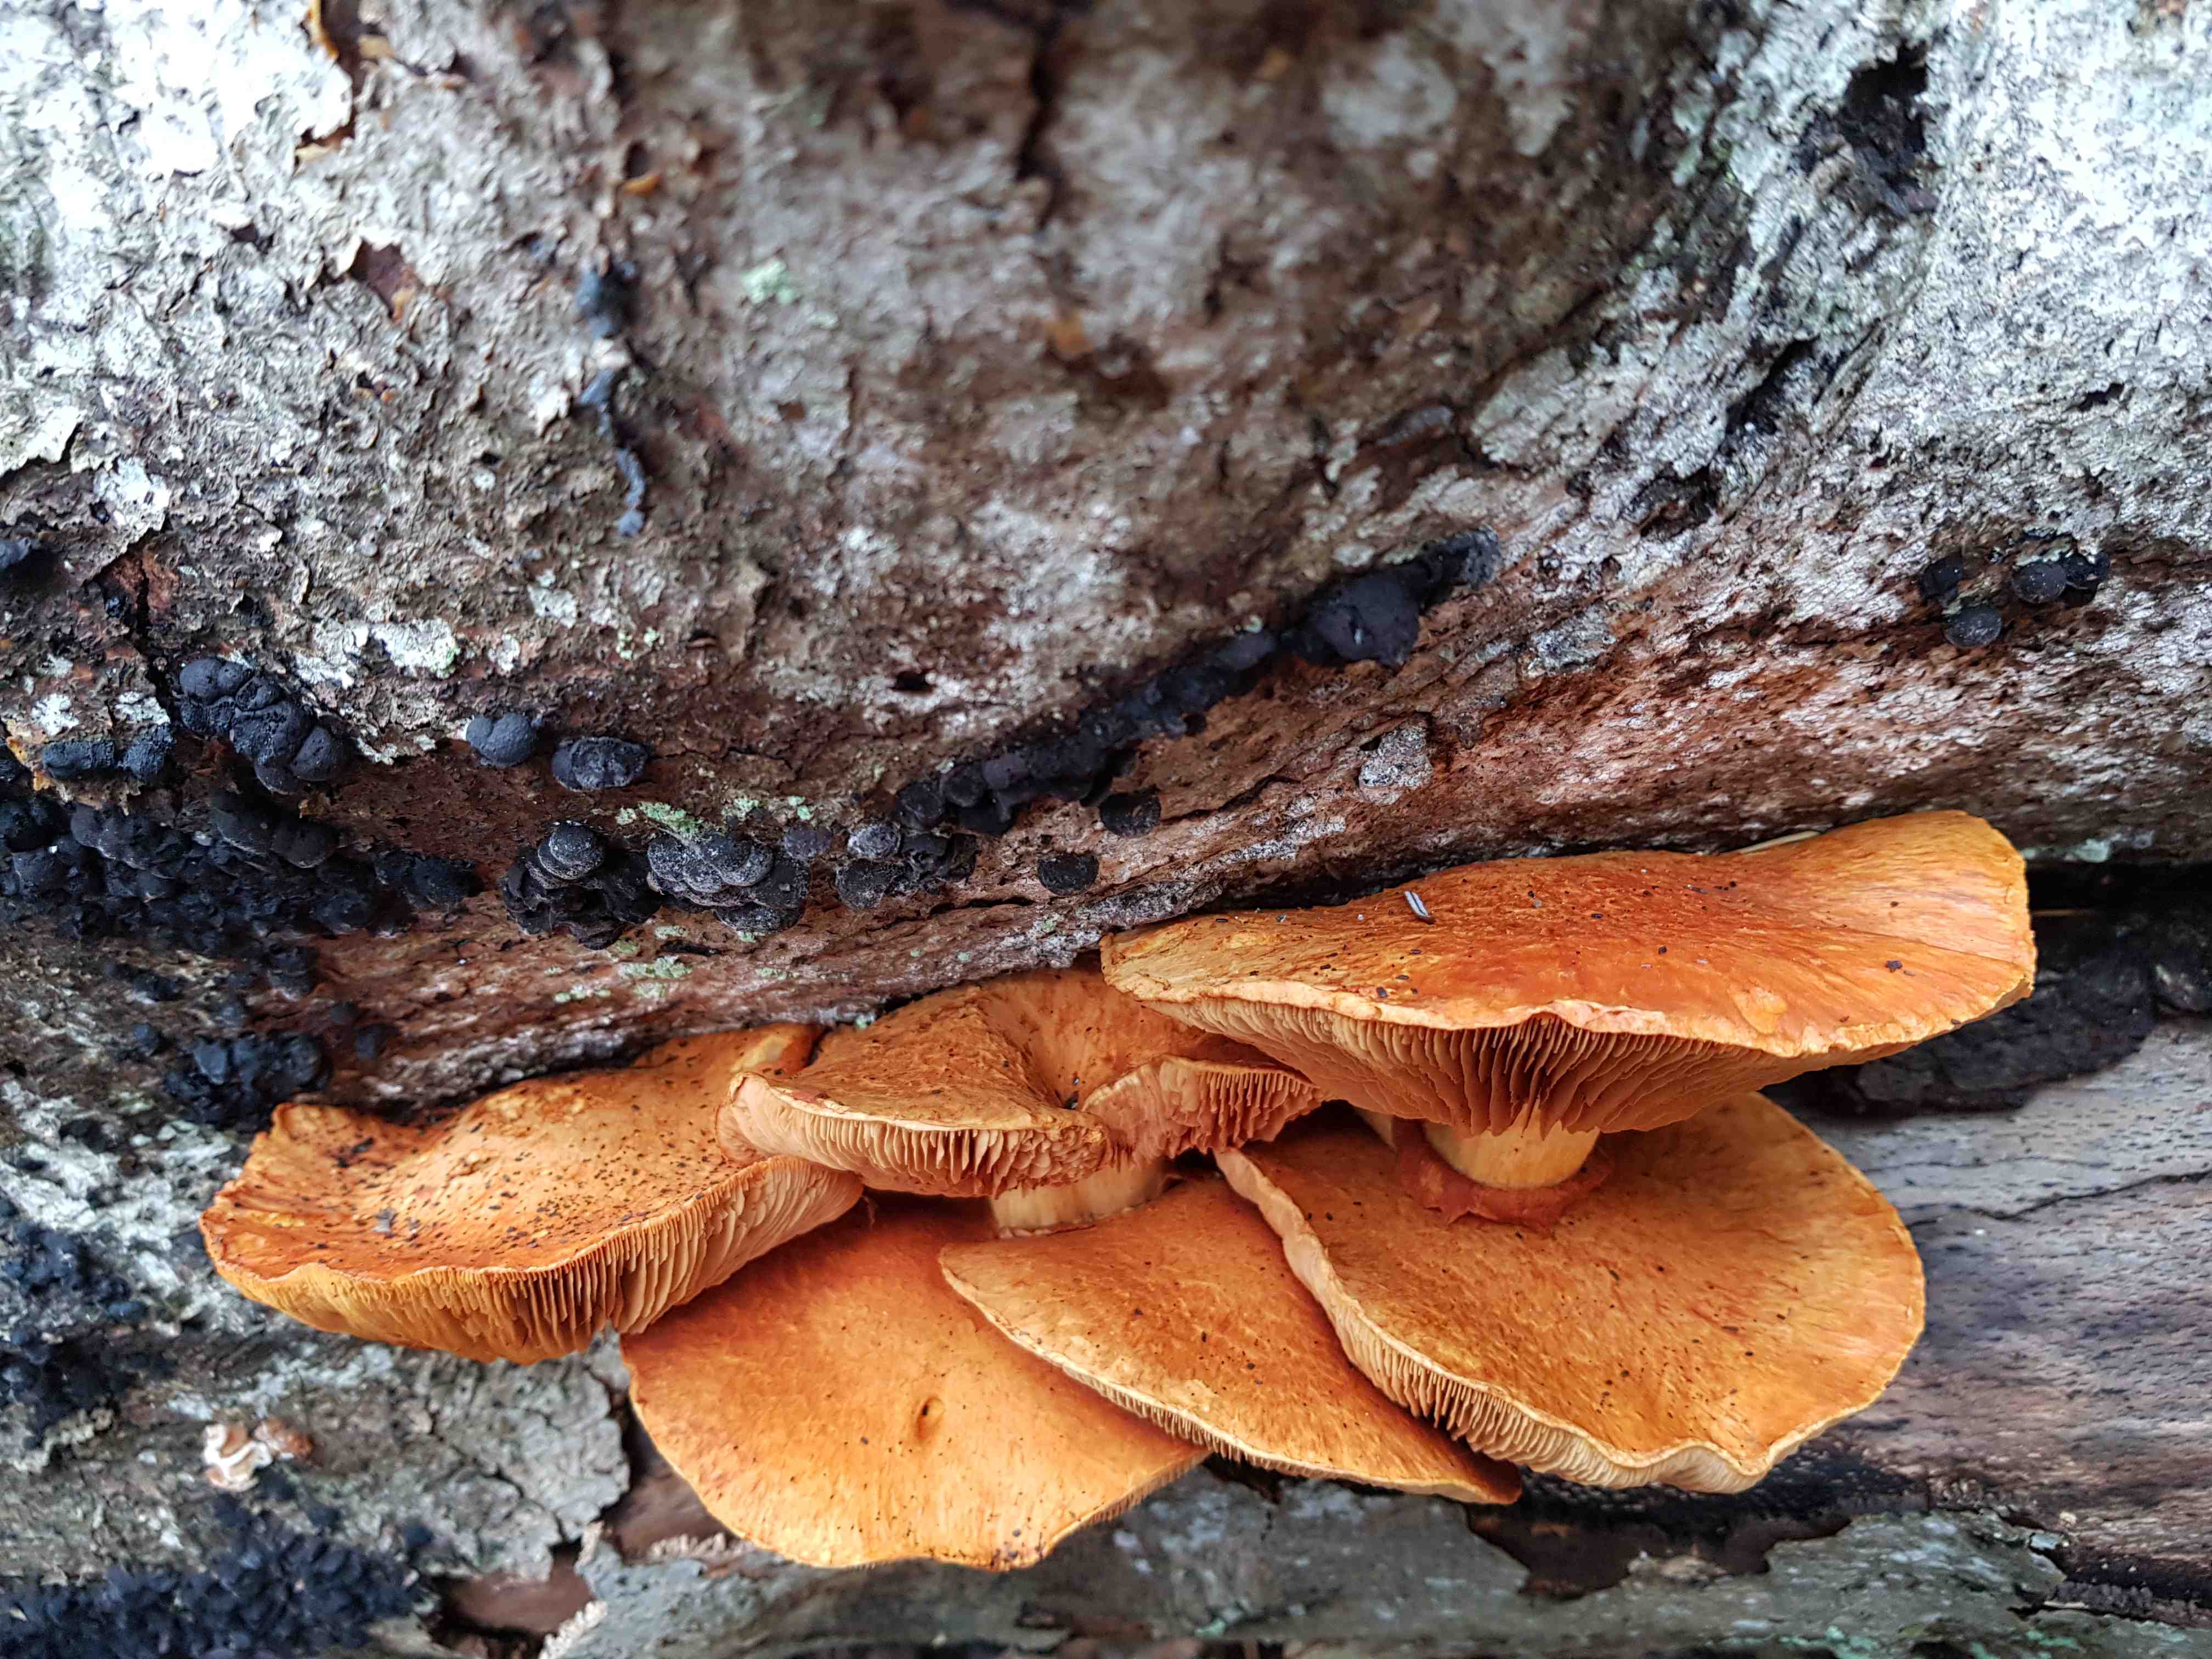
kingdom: Fungi
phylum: Basidiomycota
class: Agaricomycetes
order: Agaricales
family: Hymenogastraceae
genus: Gymnopilus
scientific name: Gymnopilus spectabilis
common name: fibret flammehat
